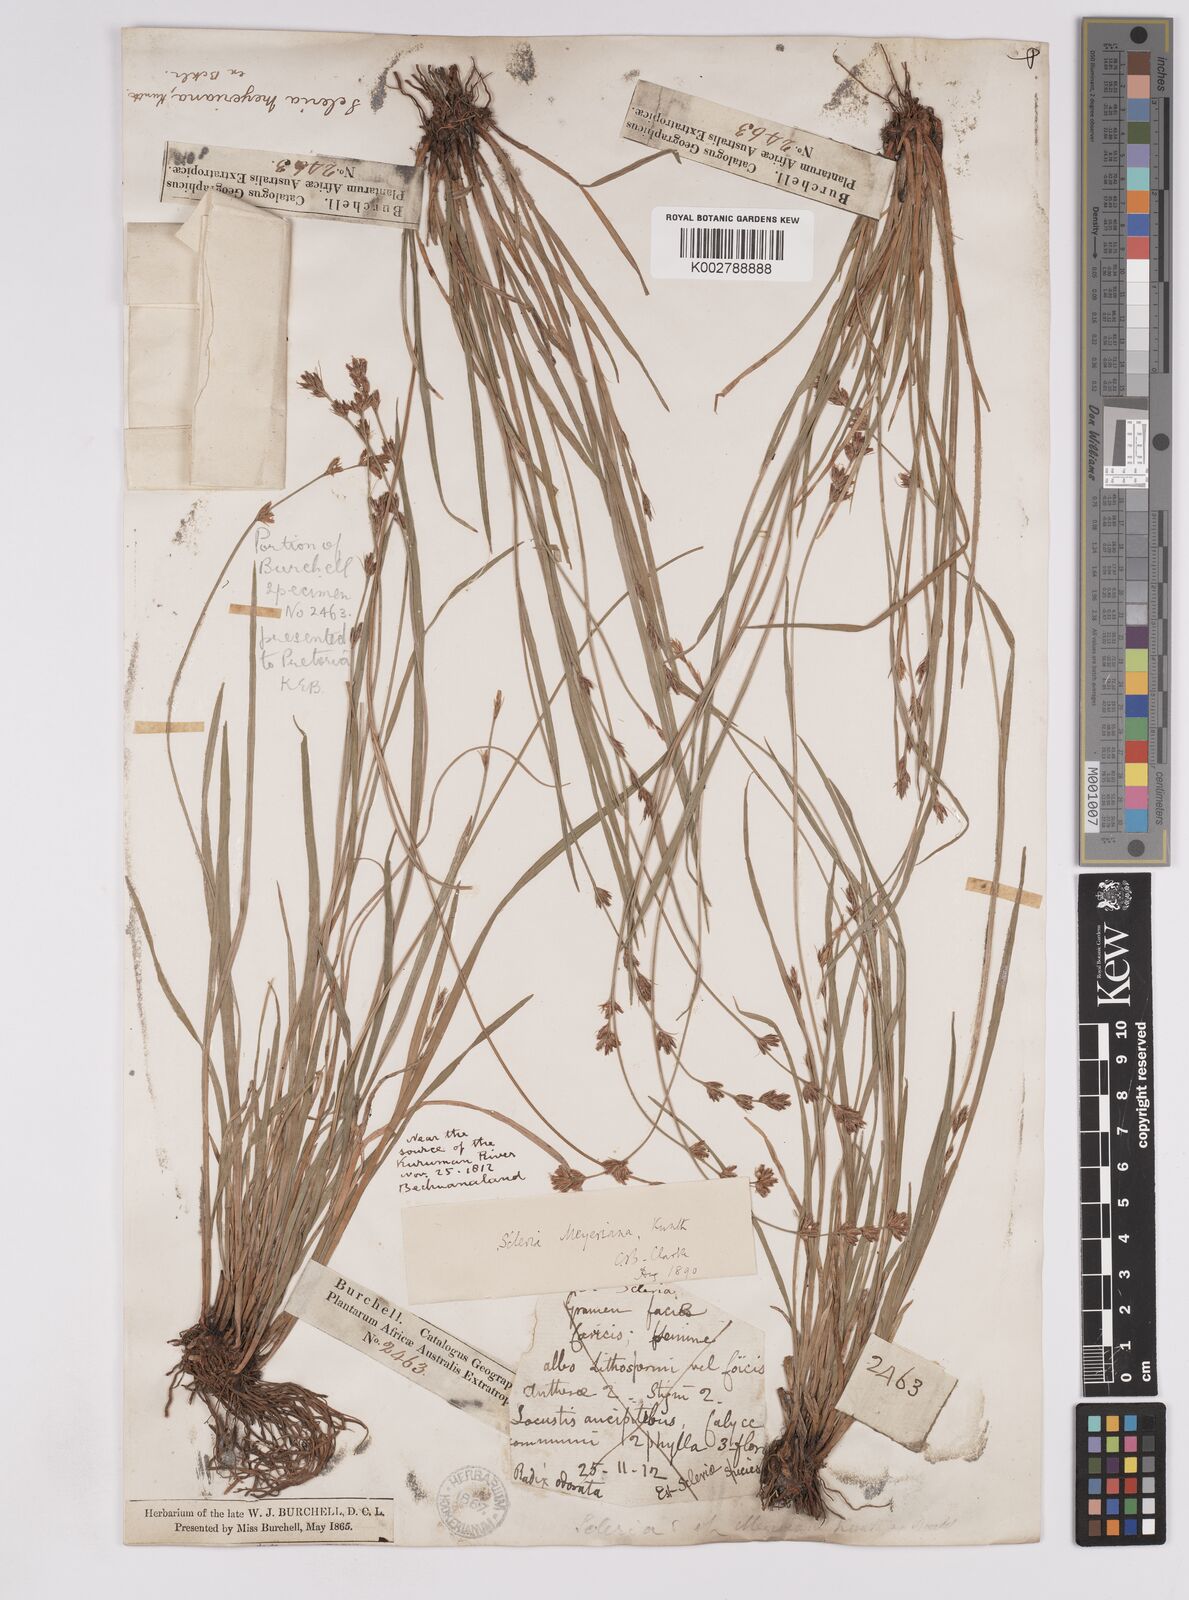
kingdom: Plantae
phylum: Tracheophyta
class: Liliopsida
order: Poales
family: Cyperaceae
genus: Scleria
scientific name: Scleria dregeana
